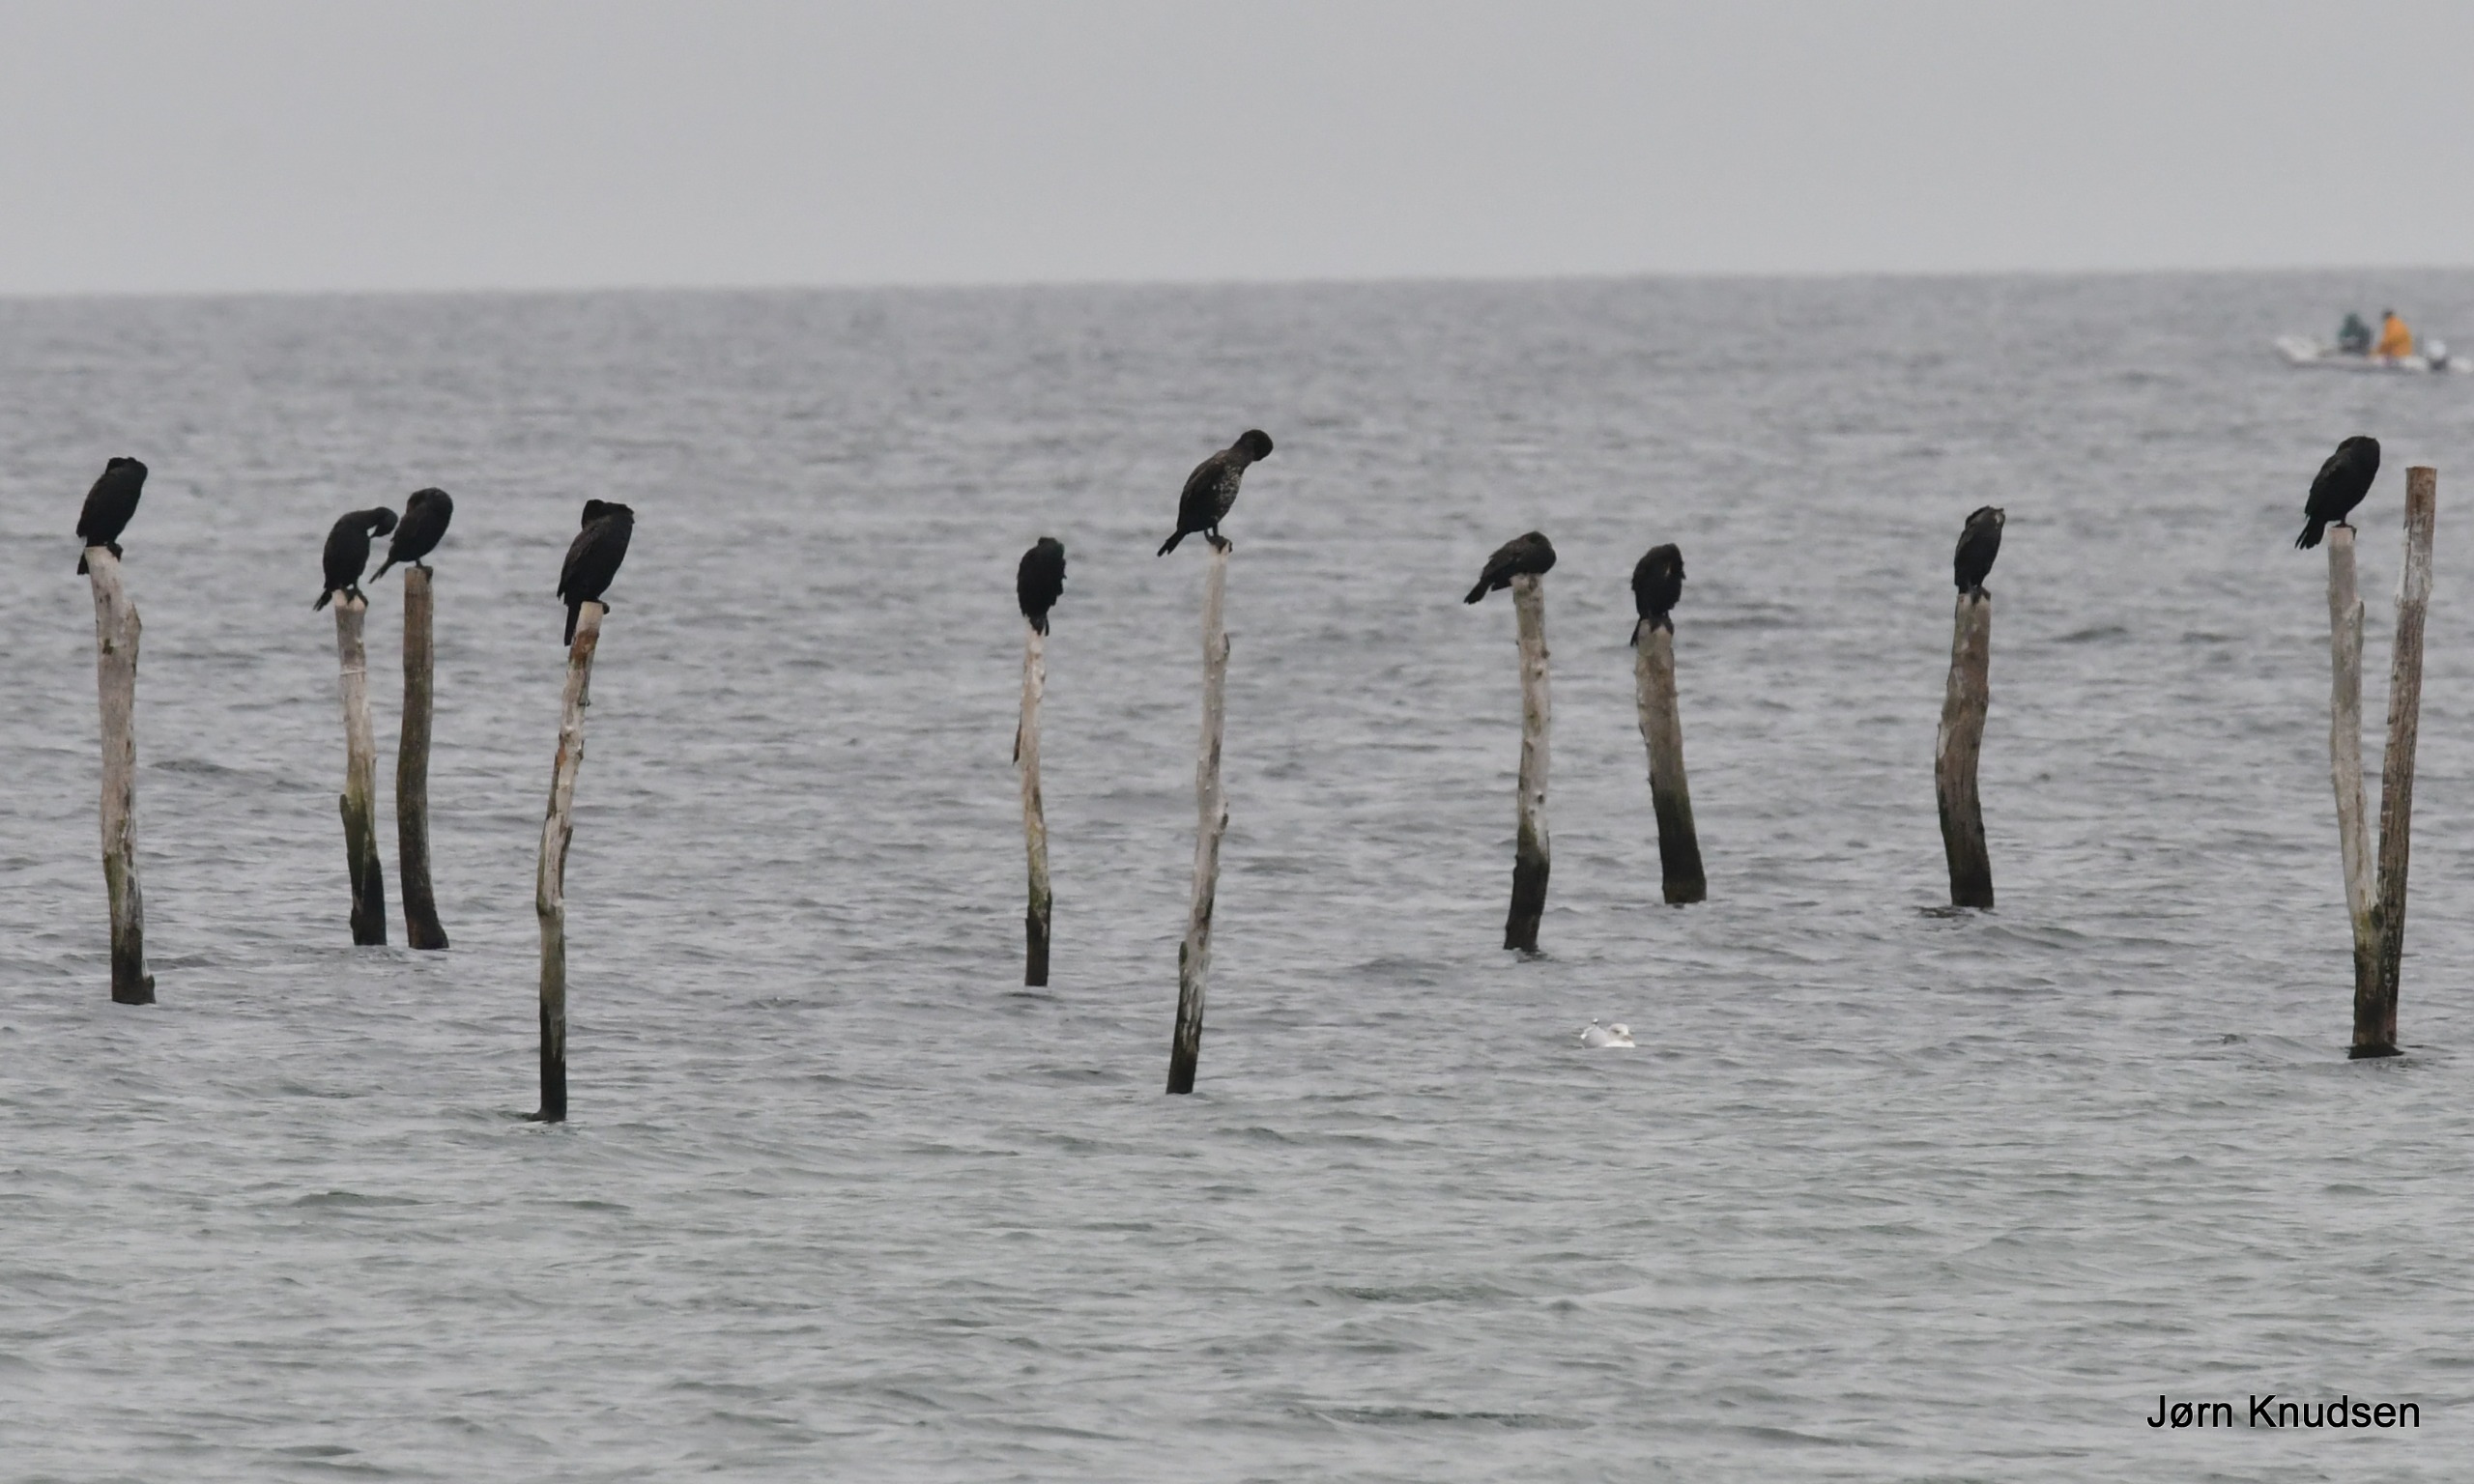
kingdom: Animalia
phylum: Chordata
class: Aves
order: Suliformes
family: Phalacrocoracidae
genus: Phalacrocorax
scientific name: Phalacrocorax carbo
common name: Skarv
